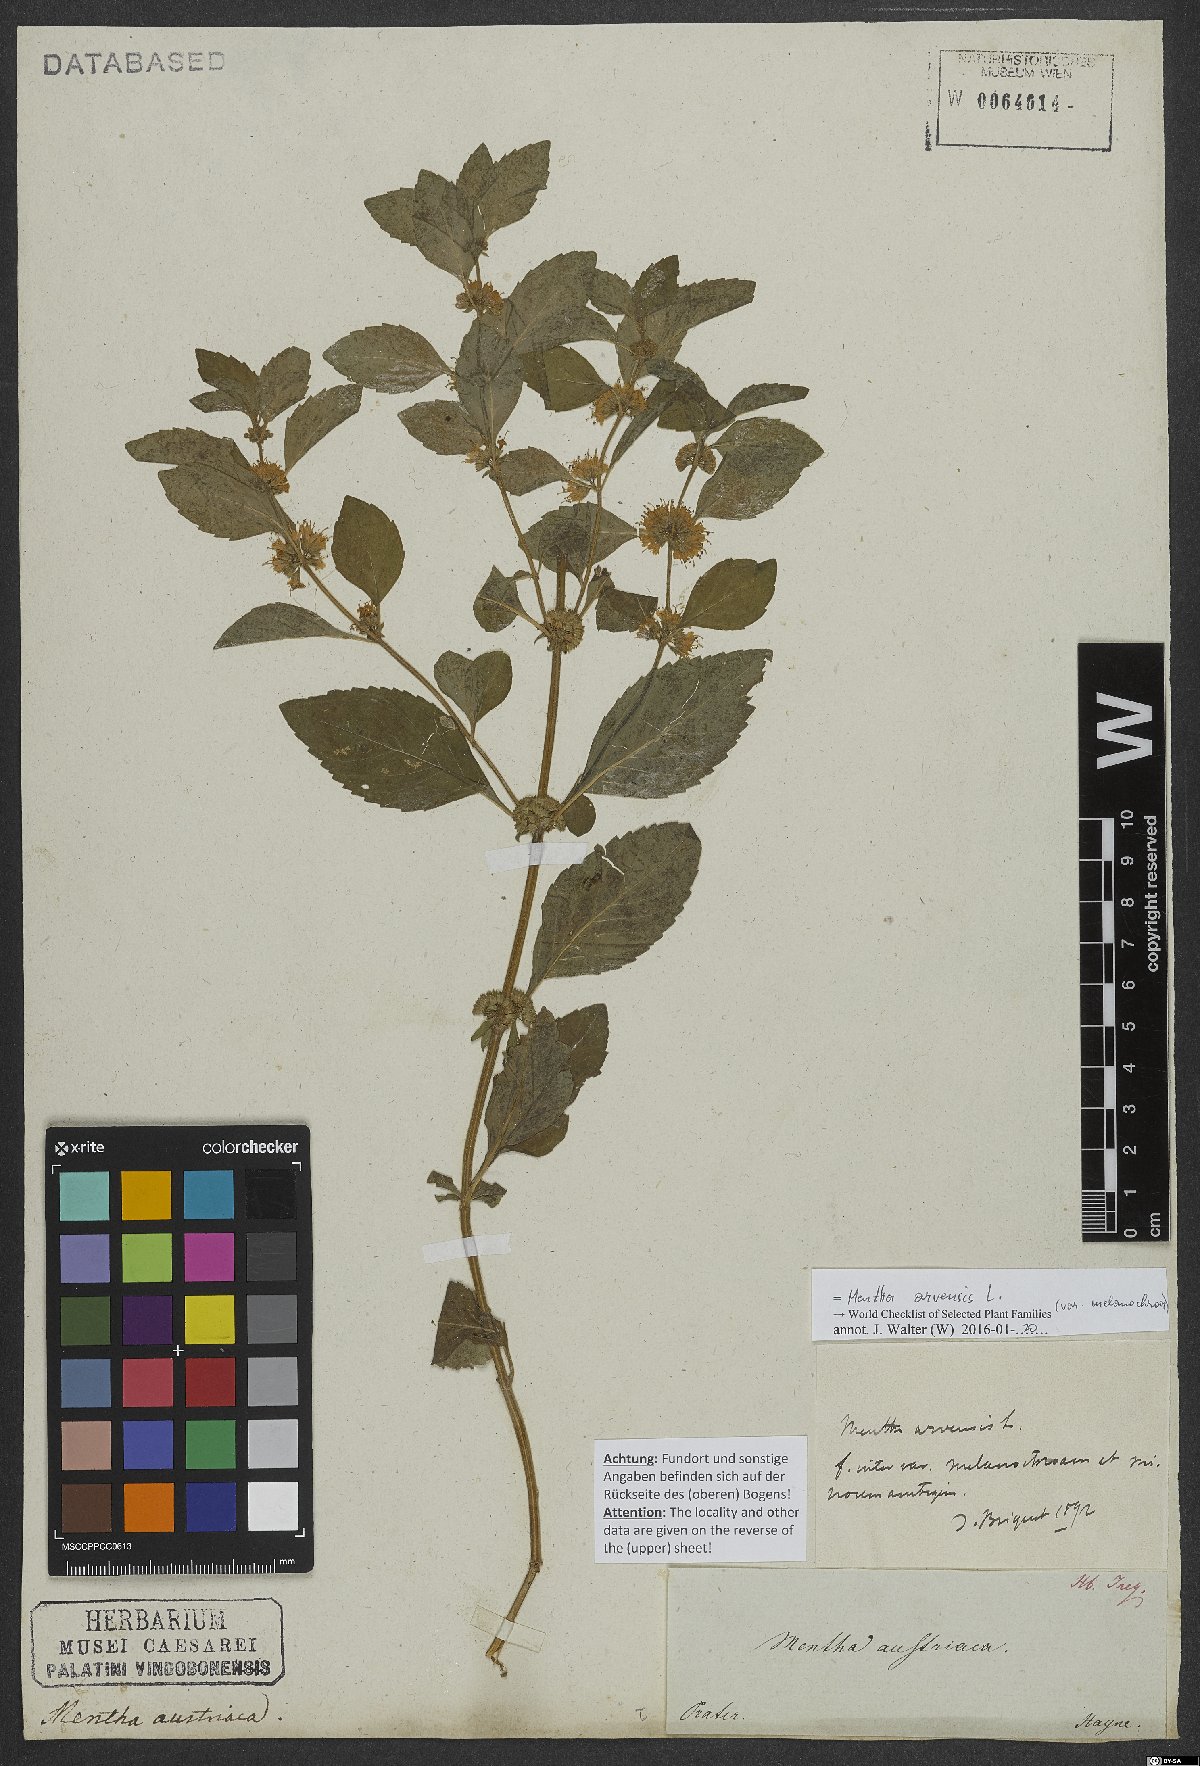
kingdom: Plantae
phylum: Tracheophyta
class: Magnoliopsida
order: Lamiales
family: Lamiaceae
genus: Mentha
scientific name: Mentha arvensis
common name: Corn mint
